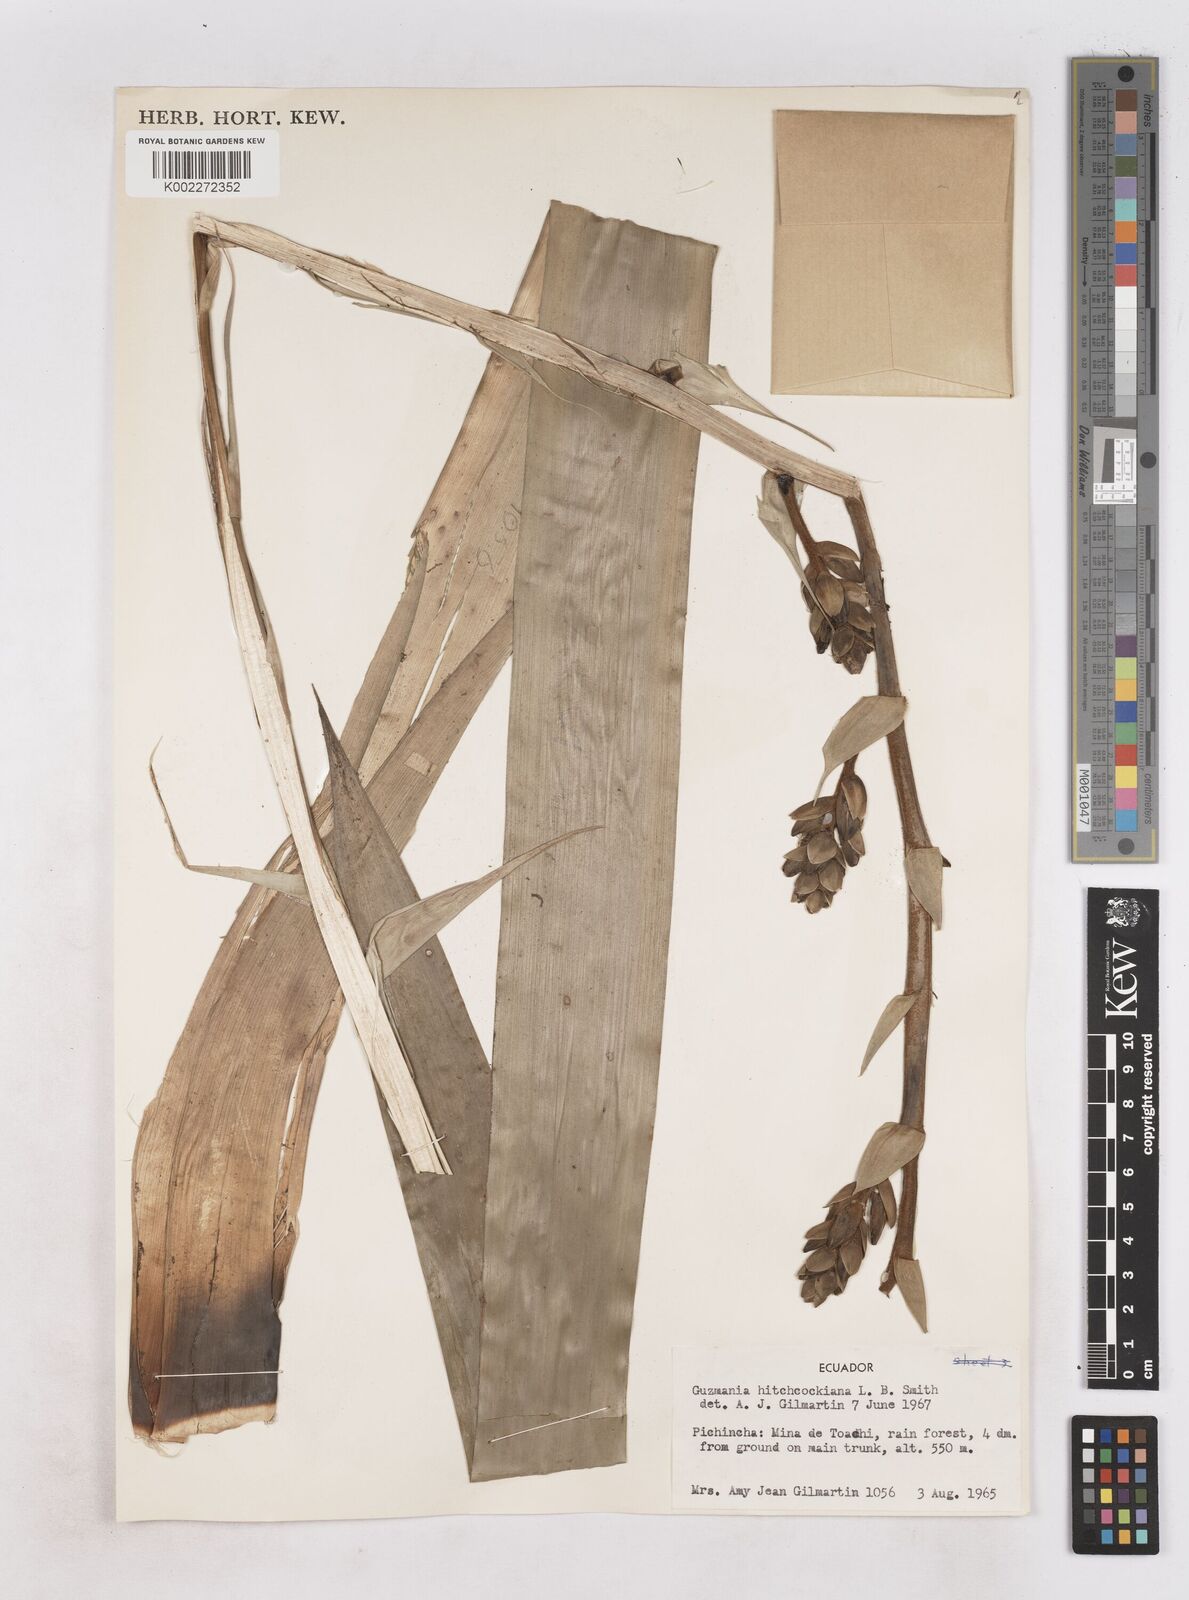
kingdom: Plantae
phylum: Tracheophyta
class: Liliopsida
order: Poales
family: Bromeliaceae
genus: Guzmania
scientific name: Guzmania hitchcockiana
